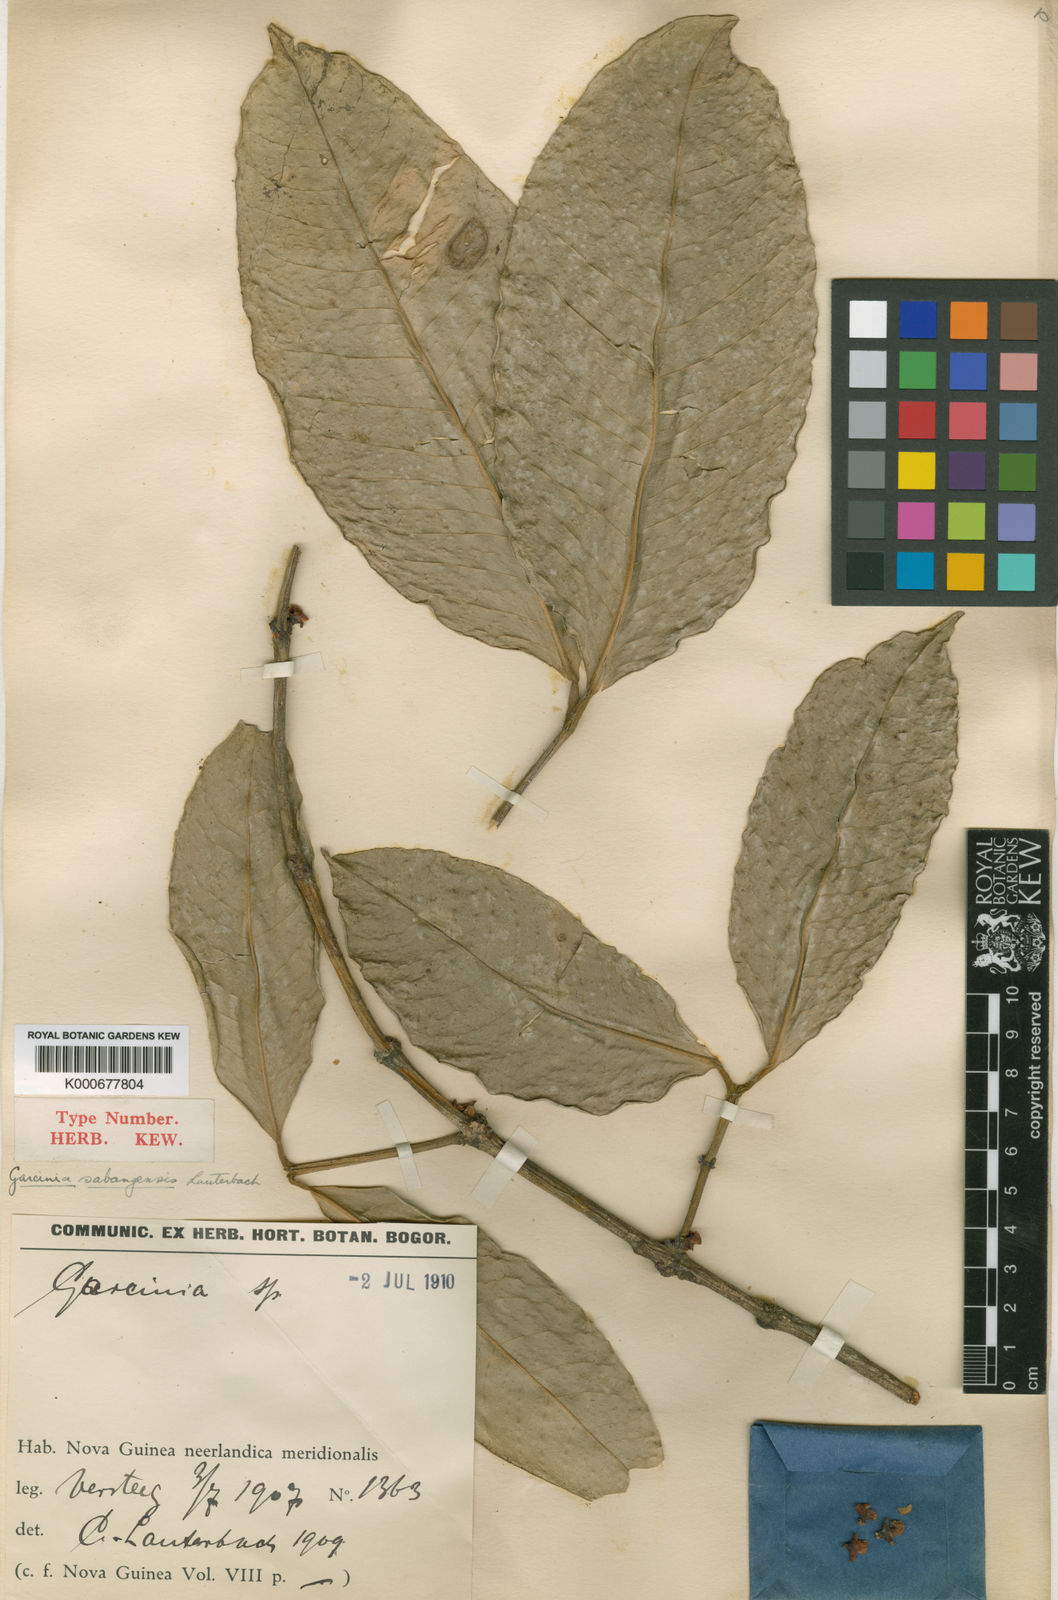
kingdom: Plantae
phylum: Tracheophyta
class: Magnoliopsida
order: Malpighiales
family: Clusiaceae
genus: Garcinia
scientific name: Garcinia sabangensis
